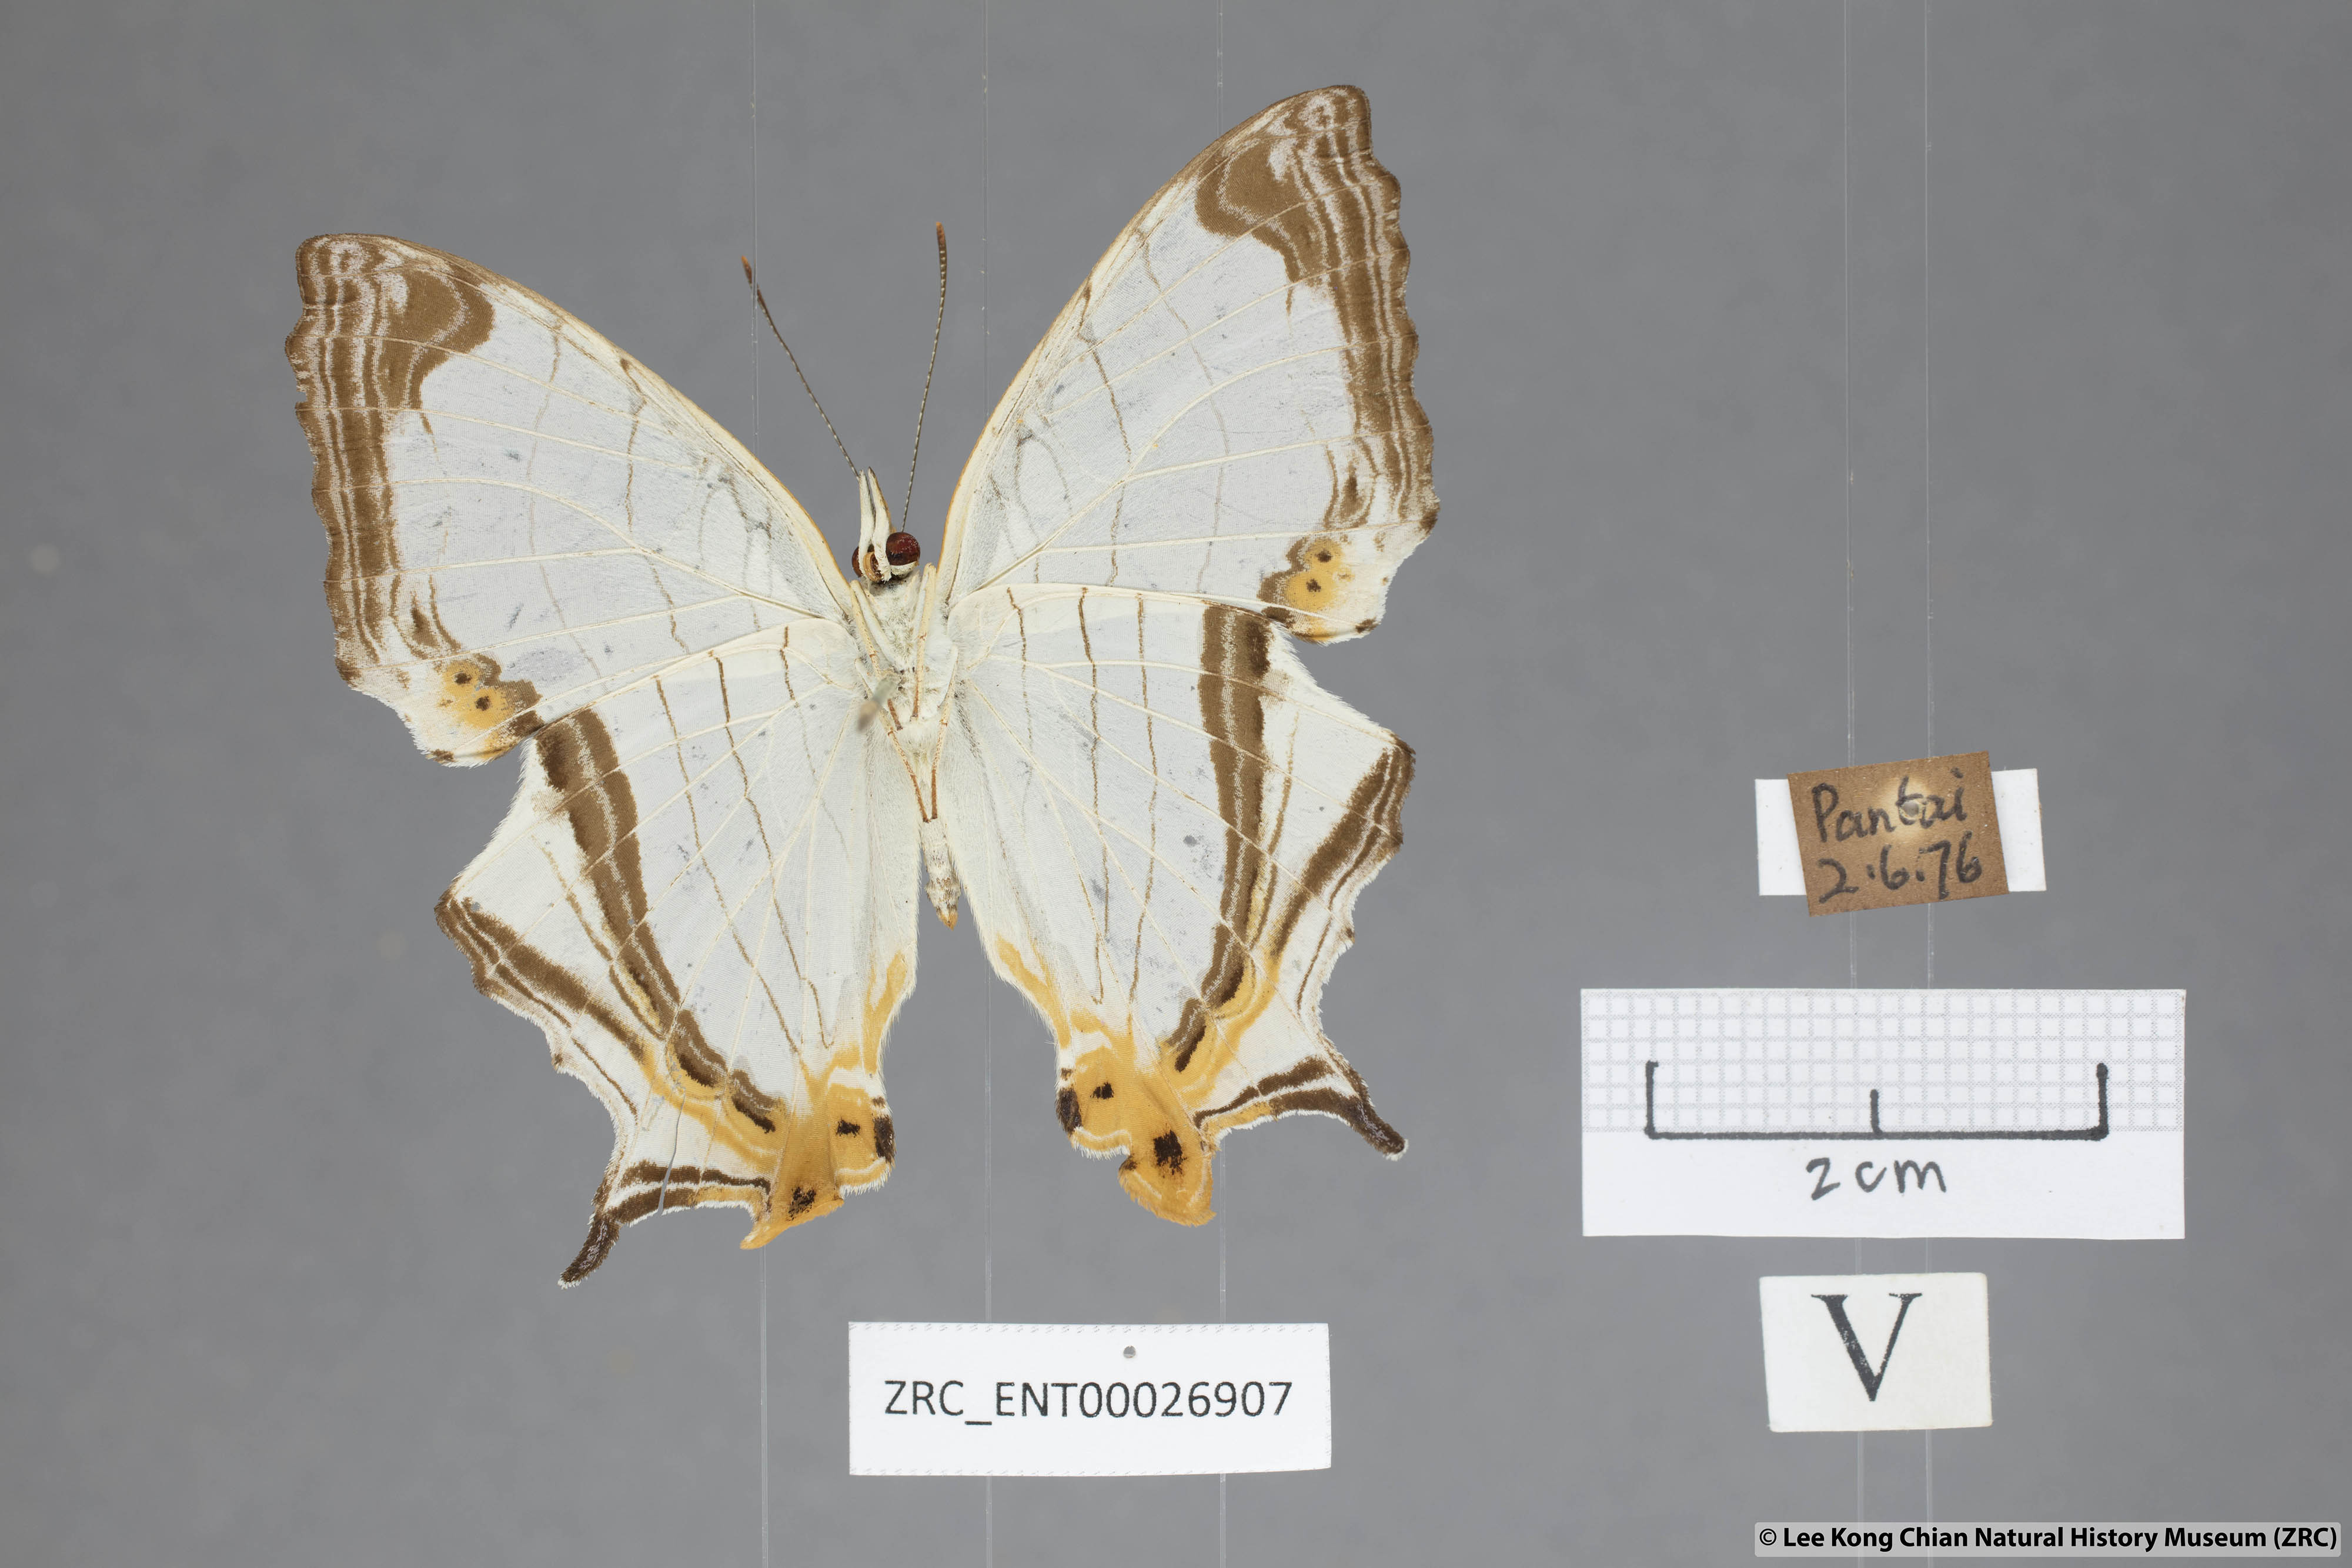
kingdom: Animalia
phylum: Arthropoda
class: Insecta
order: Lepidoptera
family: Nymphalidae
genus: Cyrestis
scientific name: Cyrestis nivea
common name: Straight line mapwing
